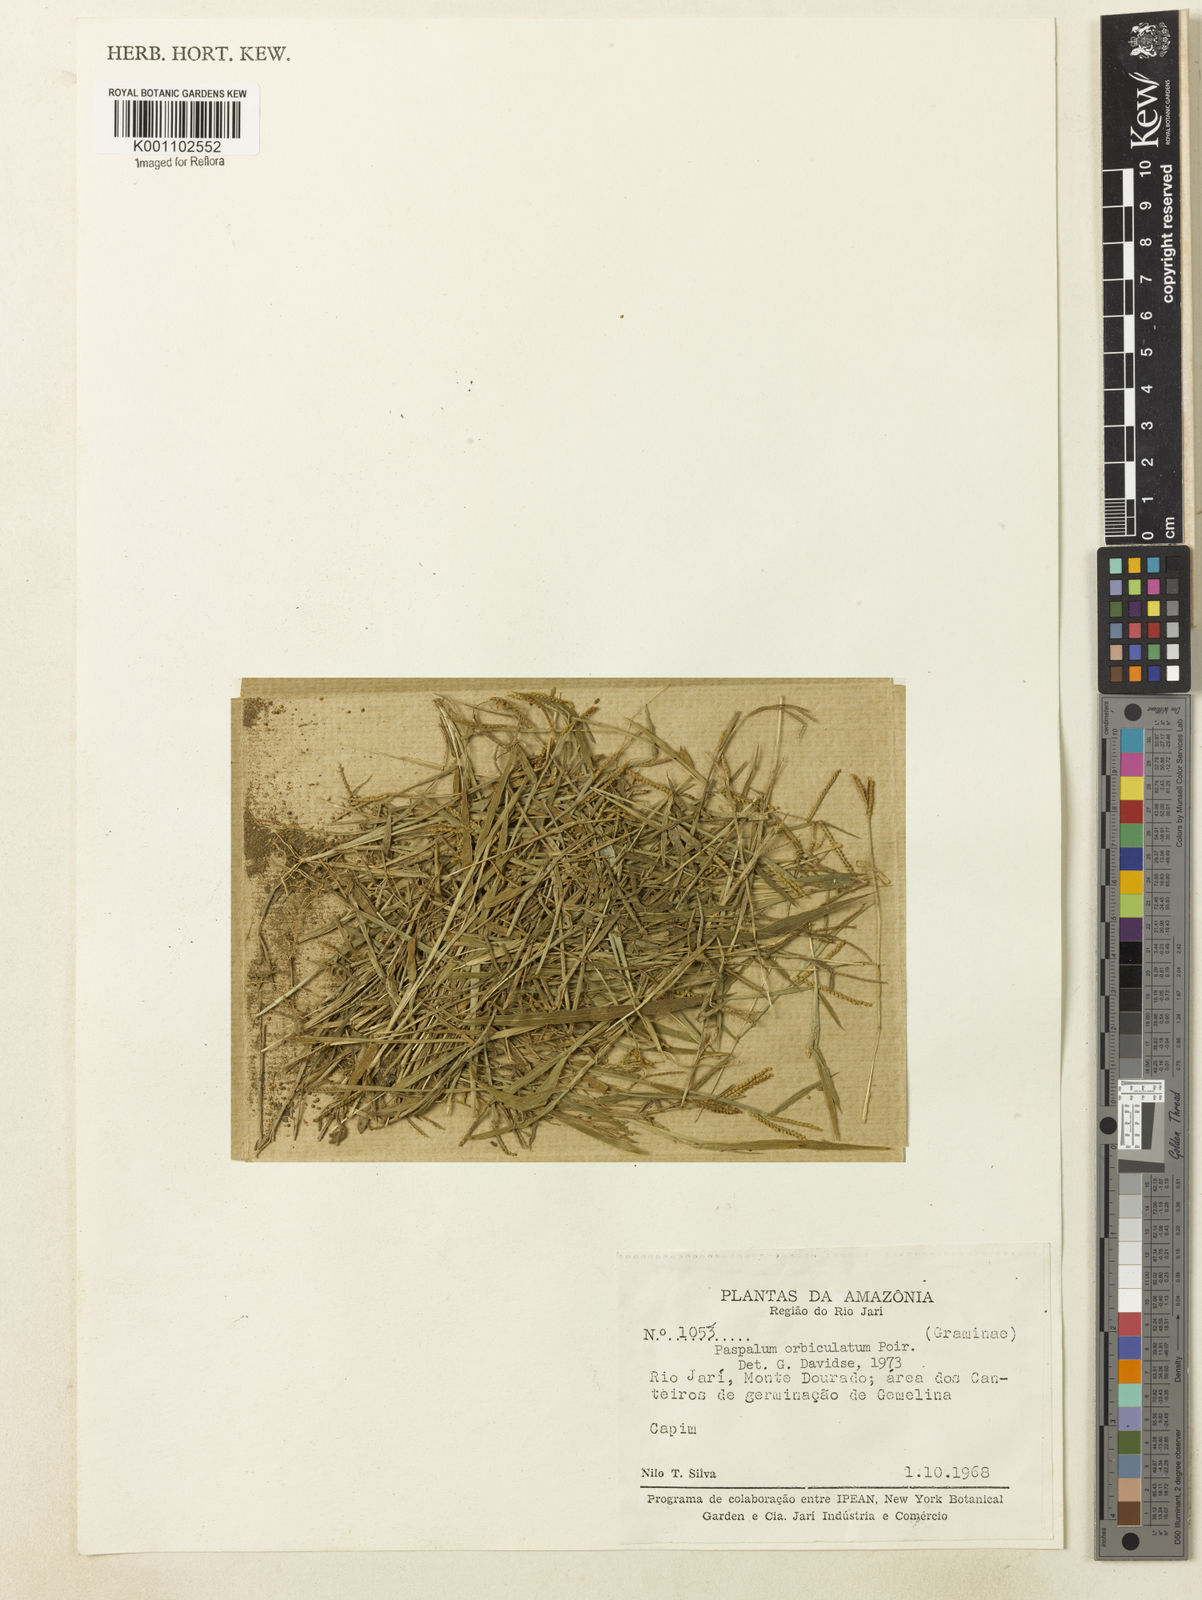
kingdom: Plantae
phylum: Tracheophyta
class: Liliopsida
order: Poales
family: Poaceae
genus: Paspalum
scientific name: Paspalum orbiculatum
